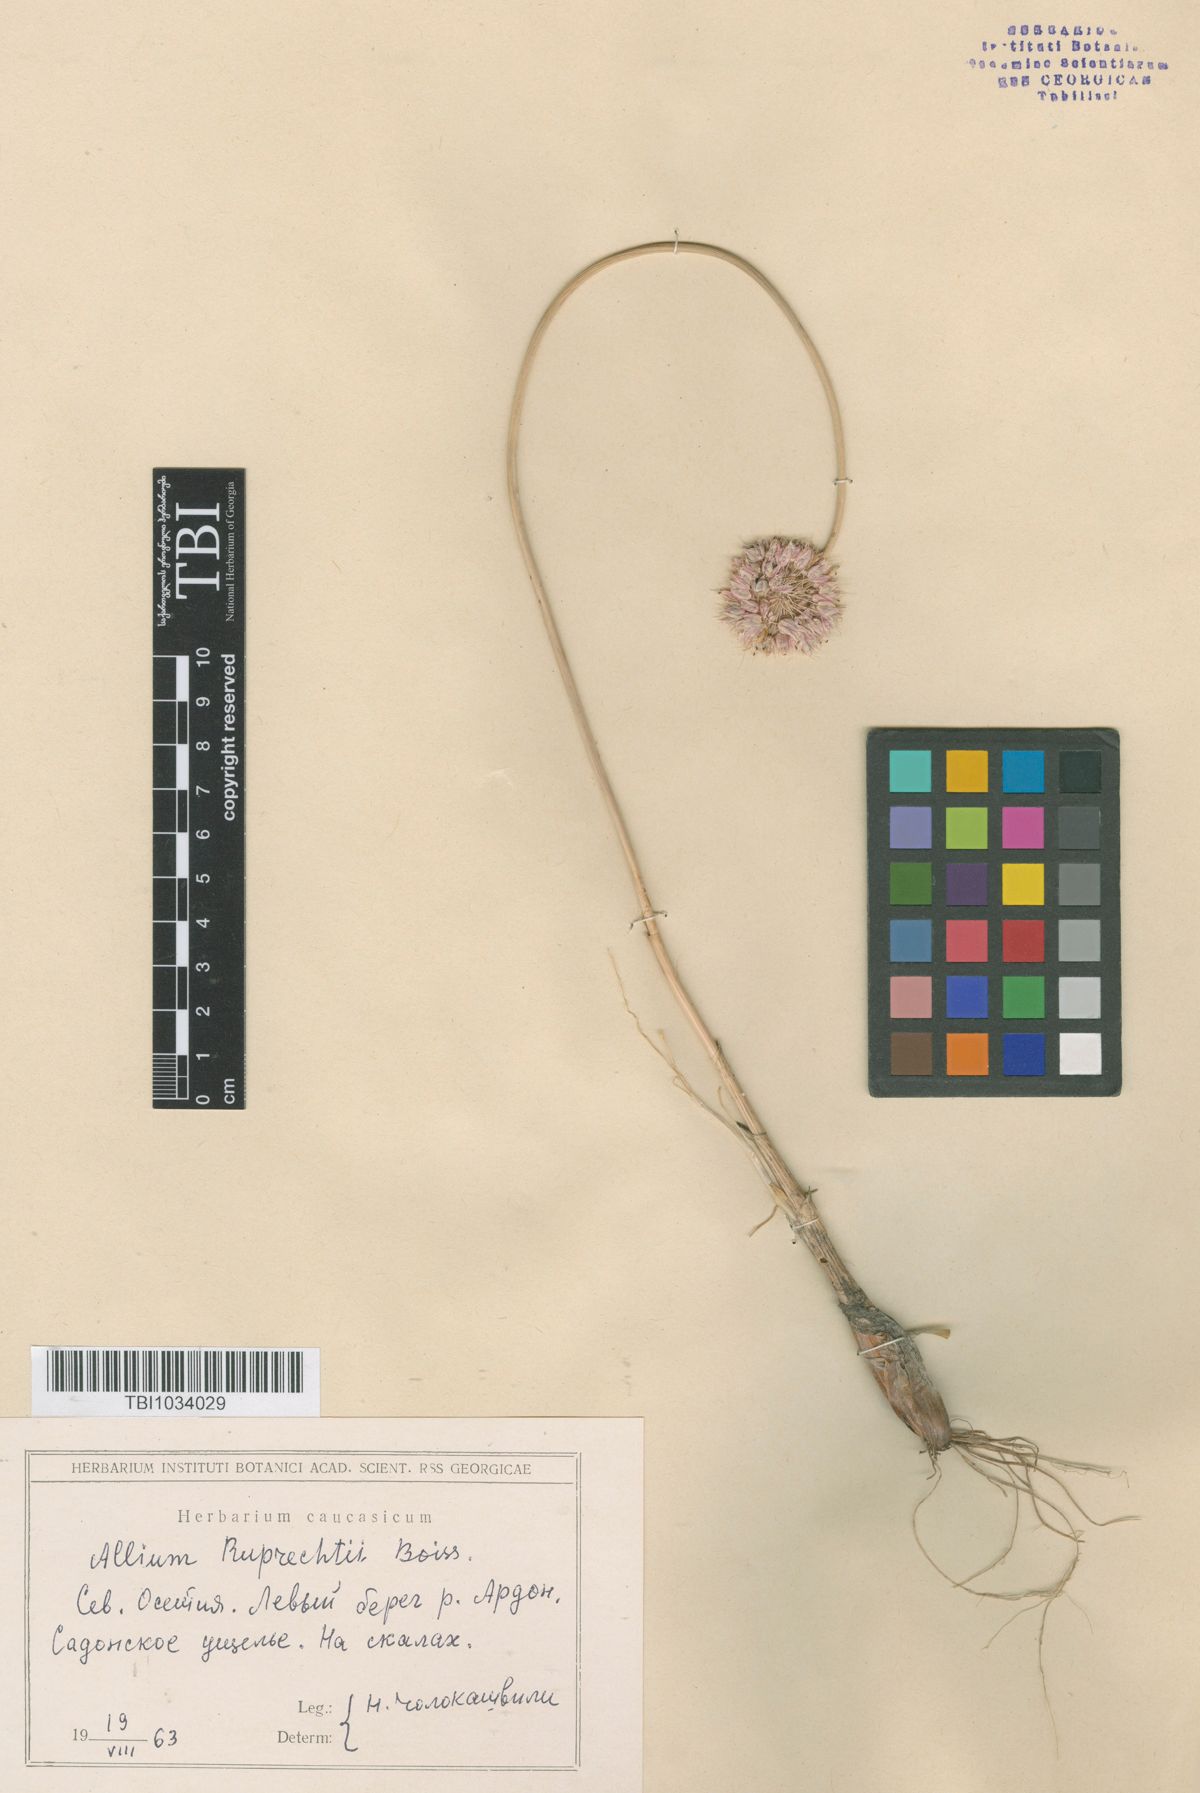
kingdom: Plantae
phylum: Tracheophyta
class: Liliopsida
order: Asparagales
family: Amaryllidaceae
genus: Allium
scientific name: Allium saxatile
